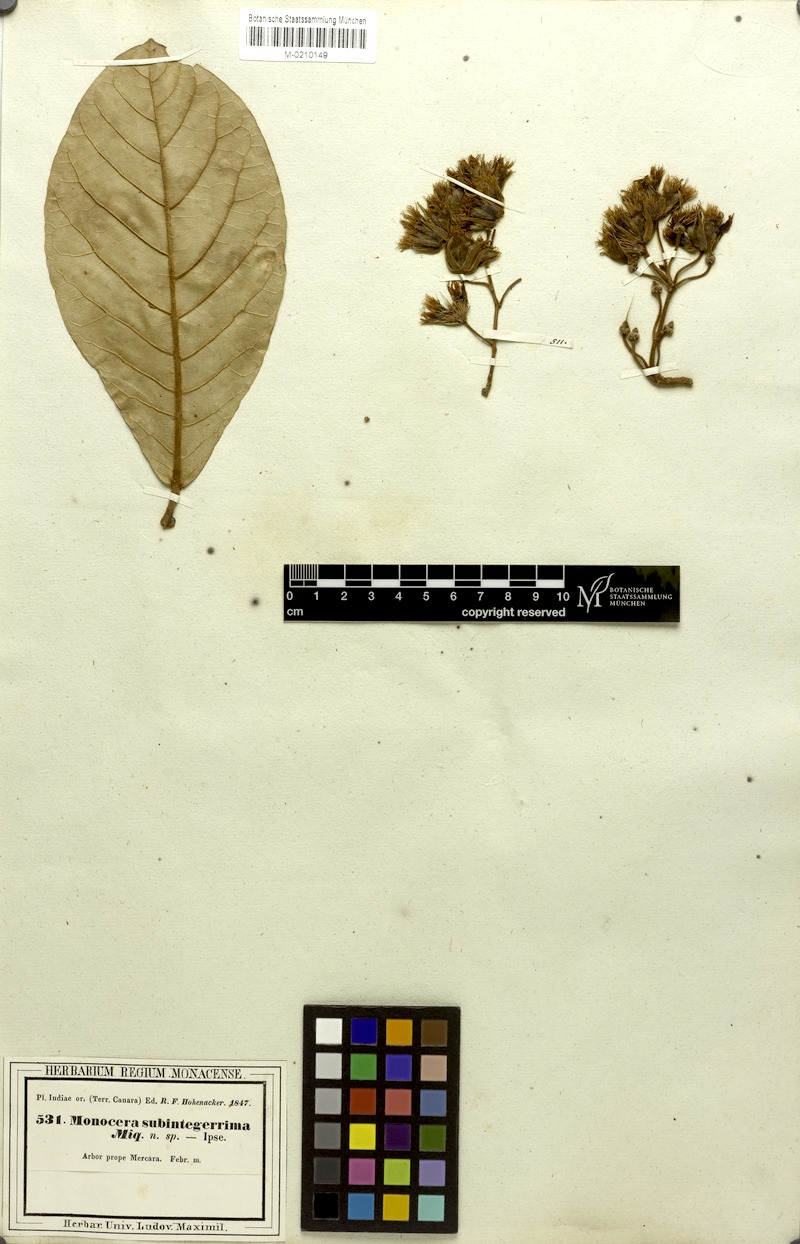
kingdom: Plantae
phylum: Tracheophyta
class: Magnoliopsida
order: Oxalidales
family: Elaeocarpaceae
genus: Elaeocarpus
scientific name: Elaeocarpus tuberculatus
